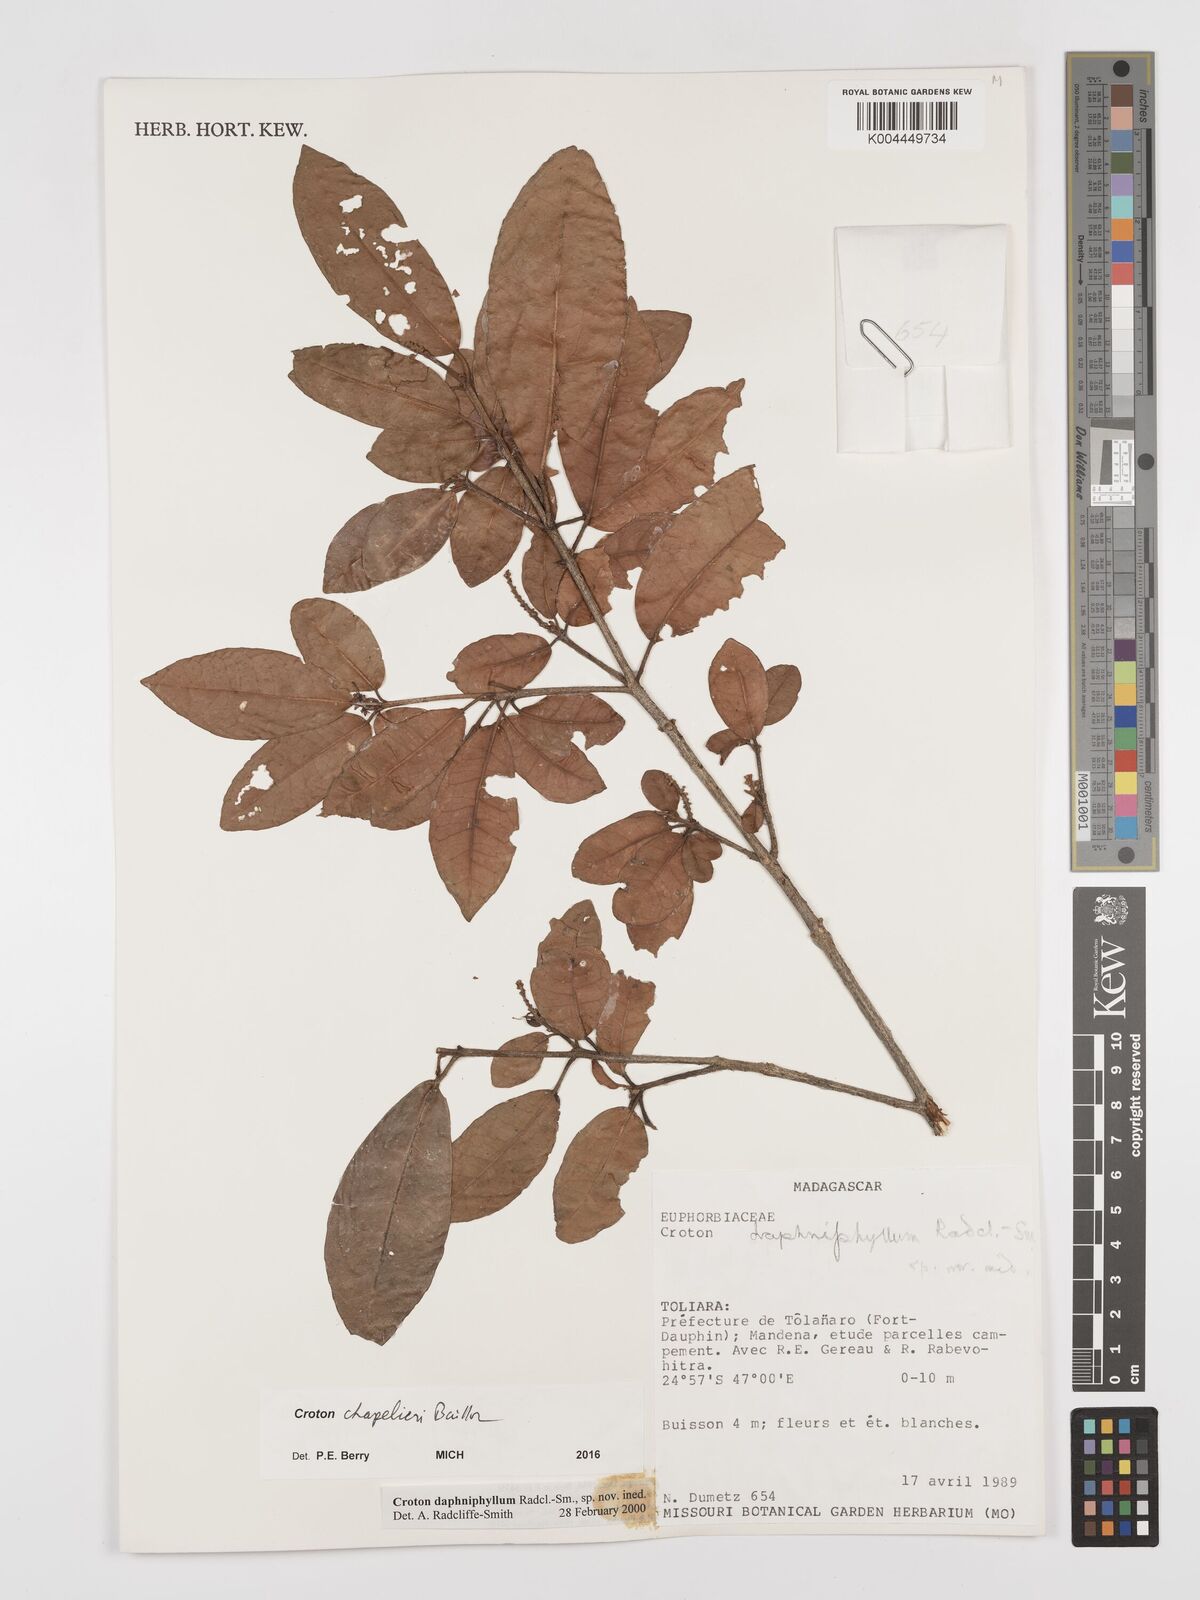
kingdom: Plantae
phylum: Tracheophyta
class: Magnoliopsida
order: Malpighiales
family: Euphorbiaceae
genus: Croton
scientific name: Croton chapelieri
